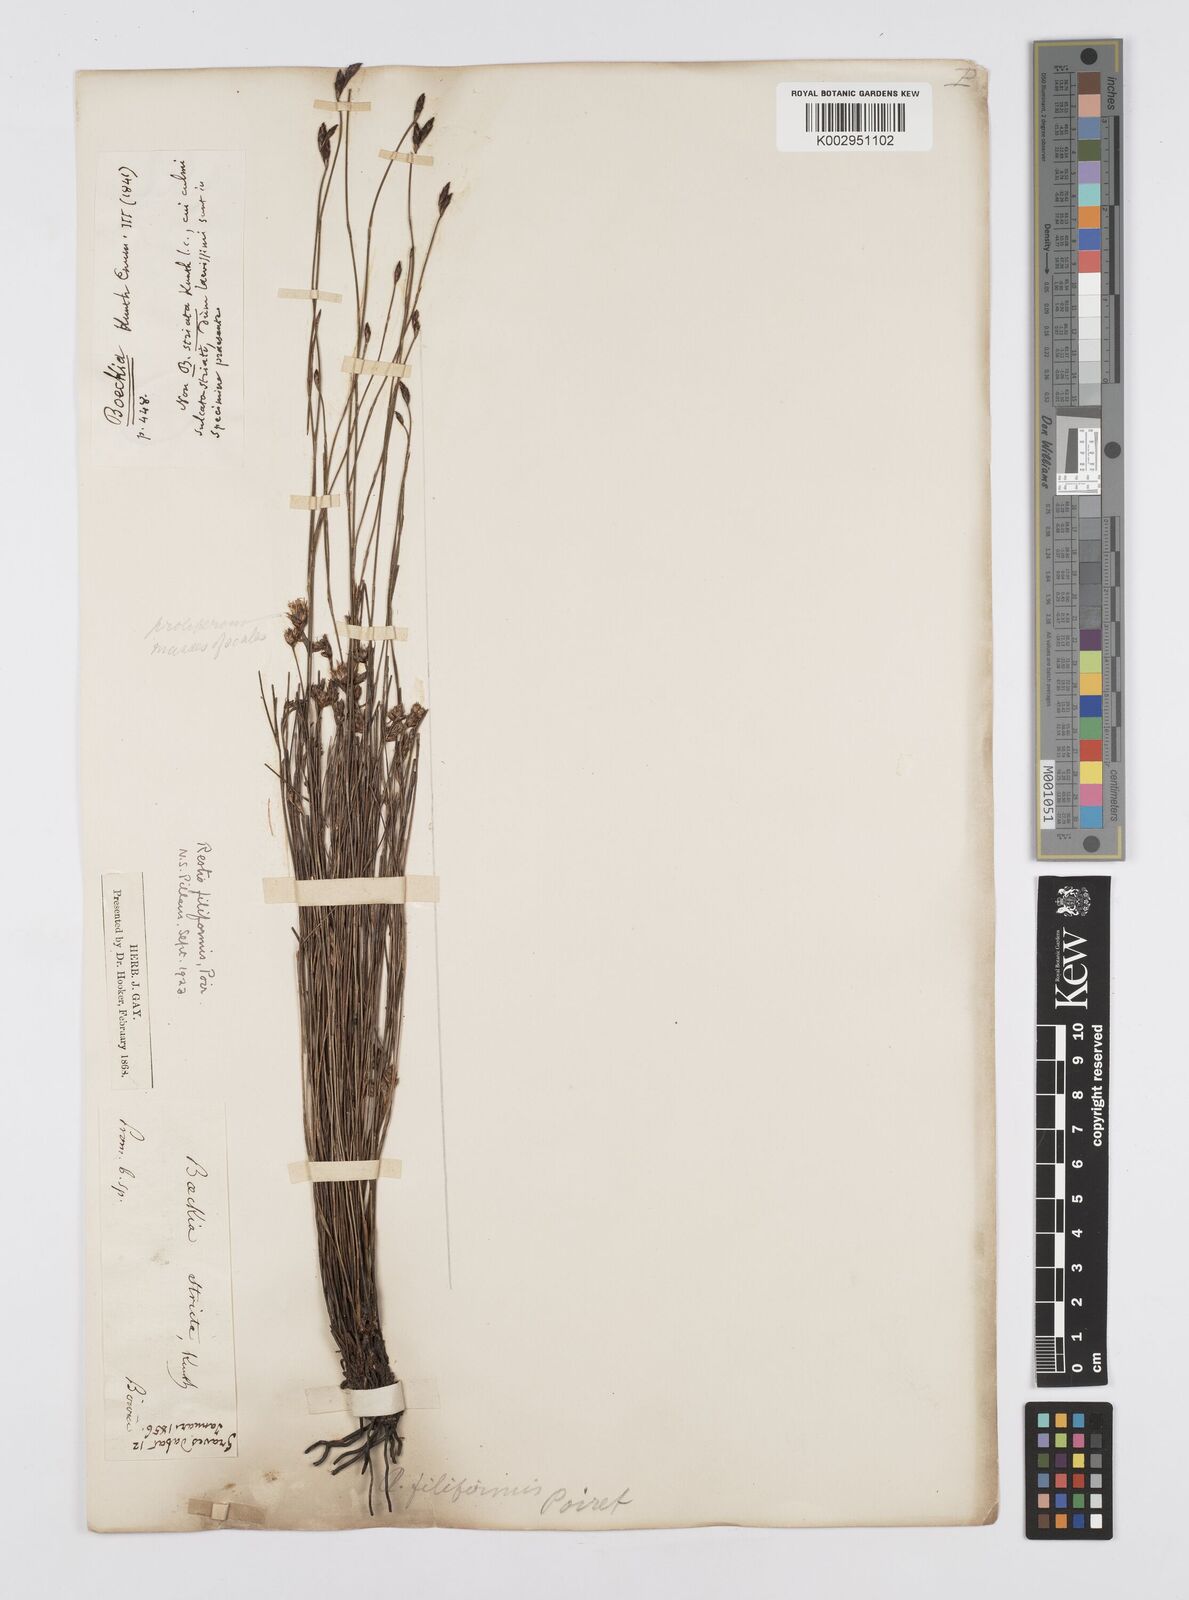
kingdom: Plantae
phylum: Tracheophyta
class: Liliopsida
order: Poales
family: Restionaceae
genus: Restio
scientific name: Restio filiformis
